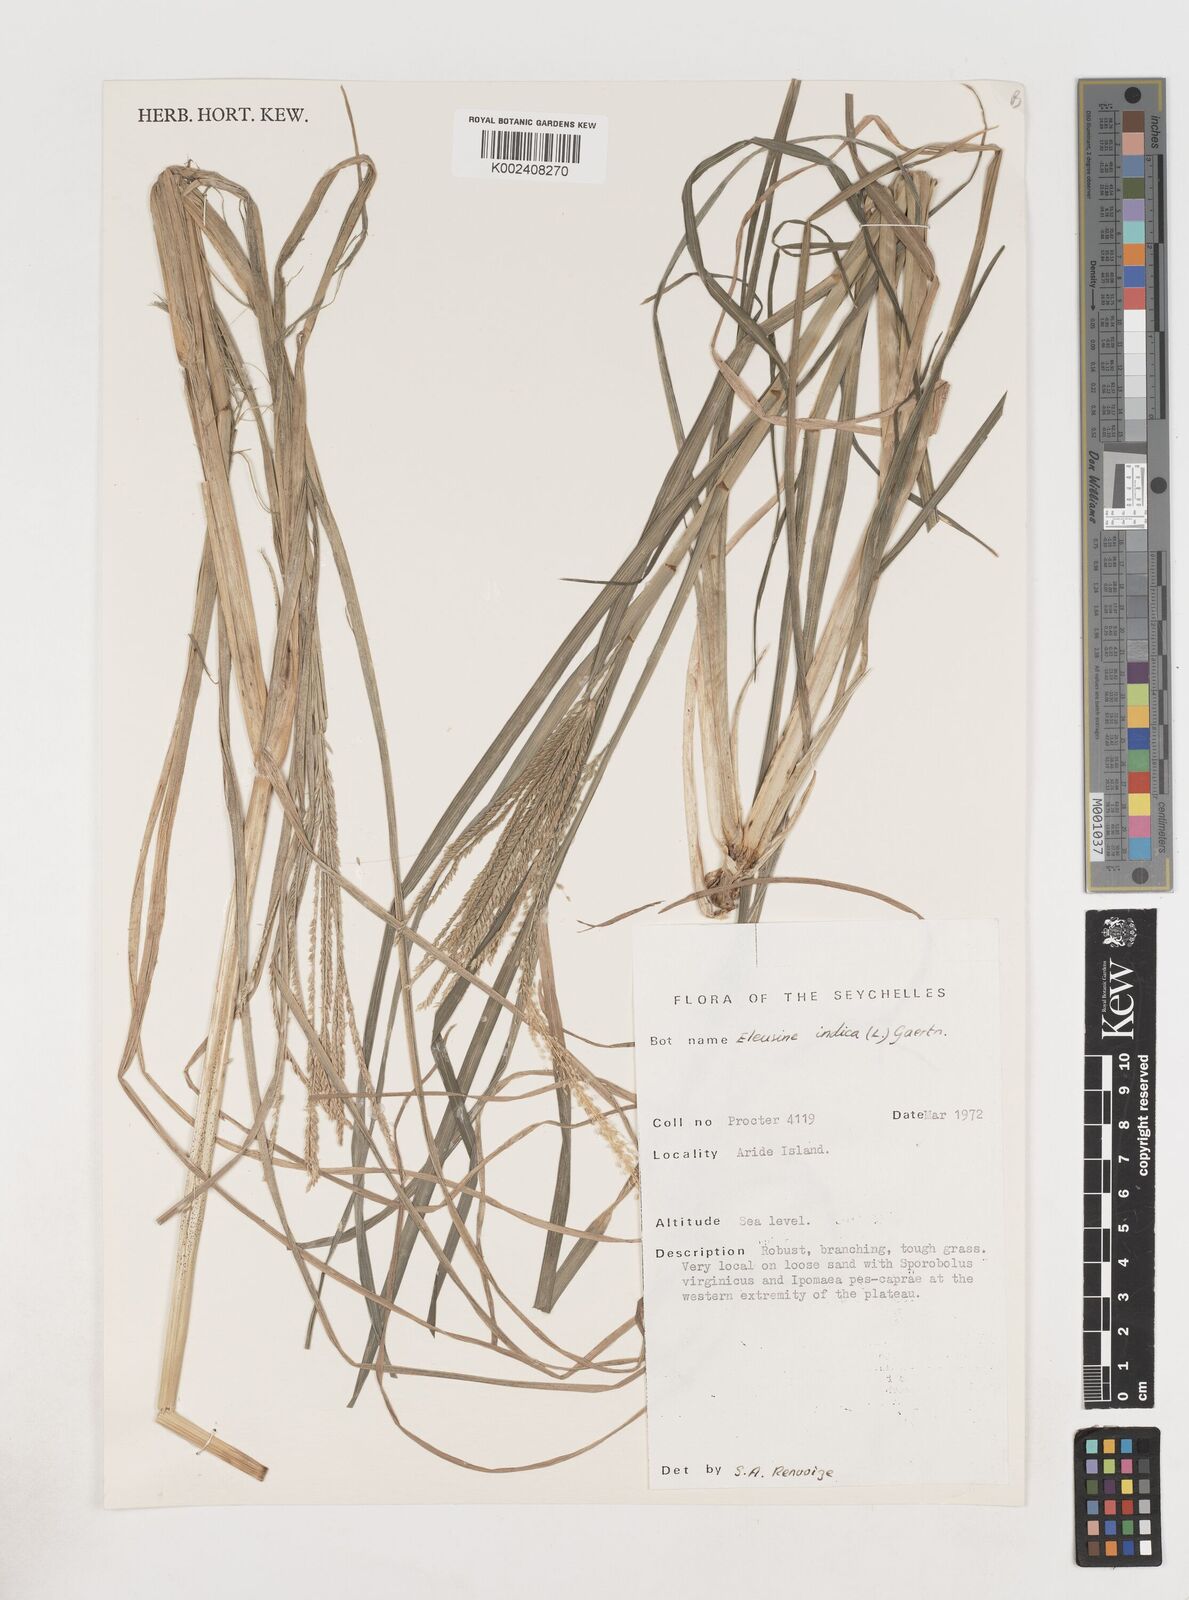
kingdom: Plantae
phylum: Tracheophyta
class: Liliopsida
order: Poales
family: Poaceae
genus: Eleusine
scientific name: Eleusine
